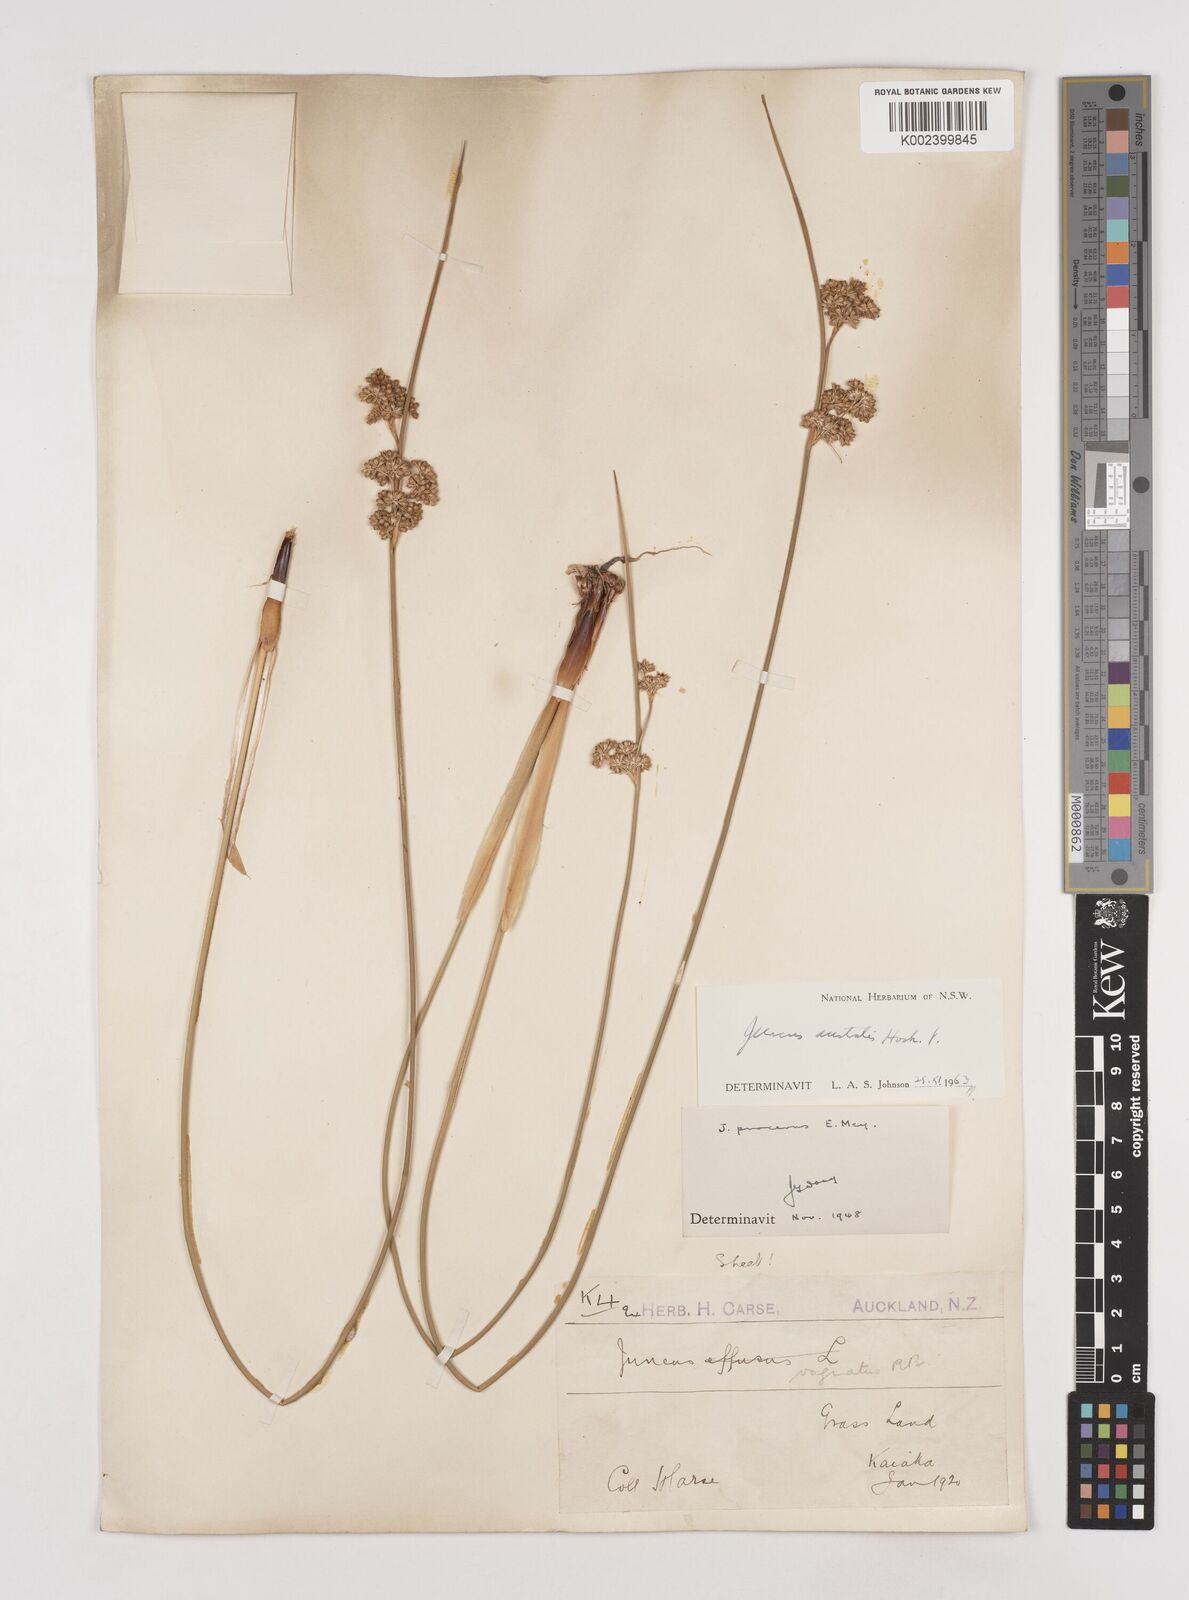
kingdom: Plantae
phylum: Tracheophyta
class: Liliopsida
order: Poales
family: Juncaceae
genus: Juncus
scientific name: Juncus australis
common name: Austral rush
